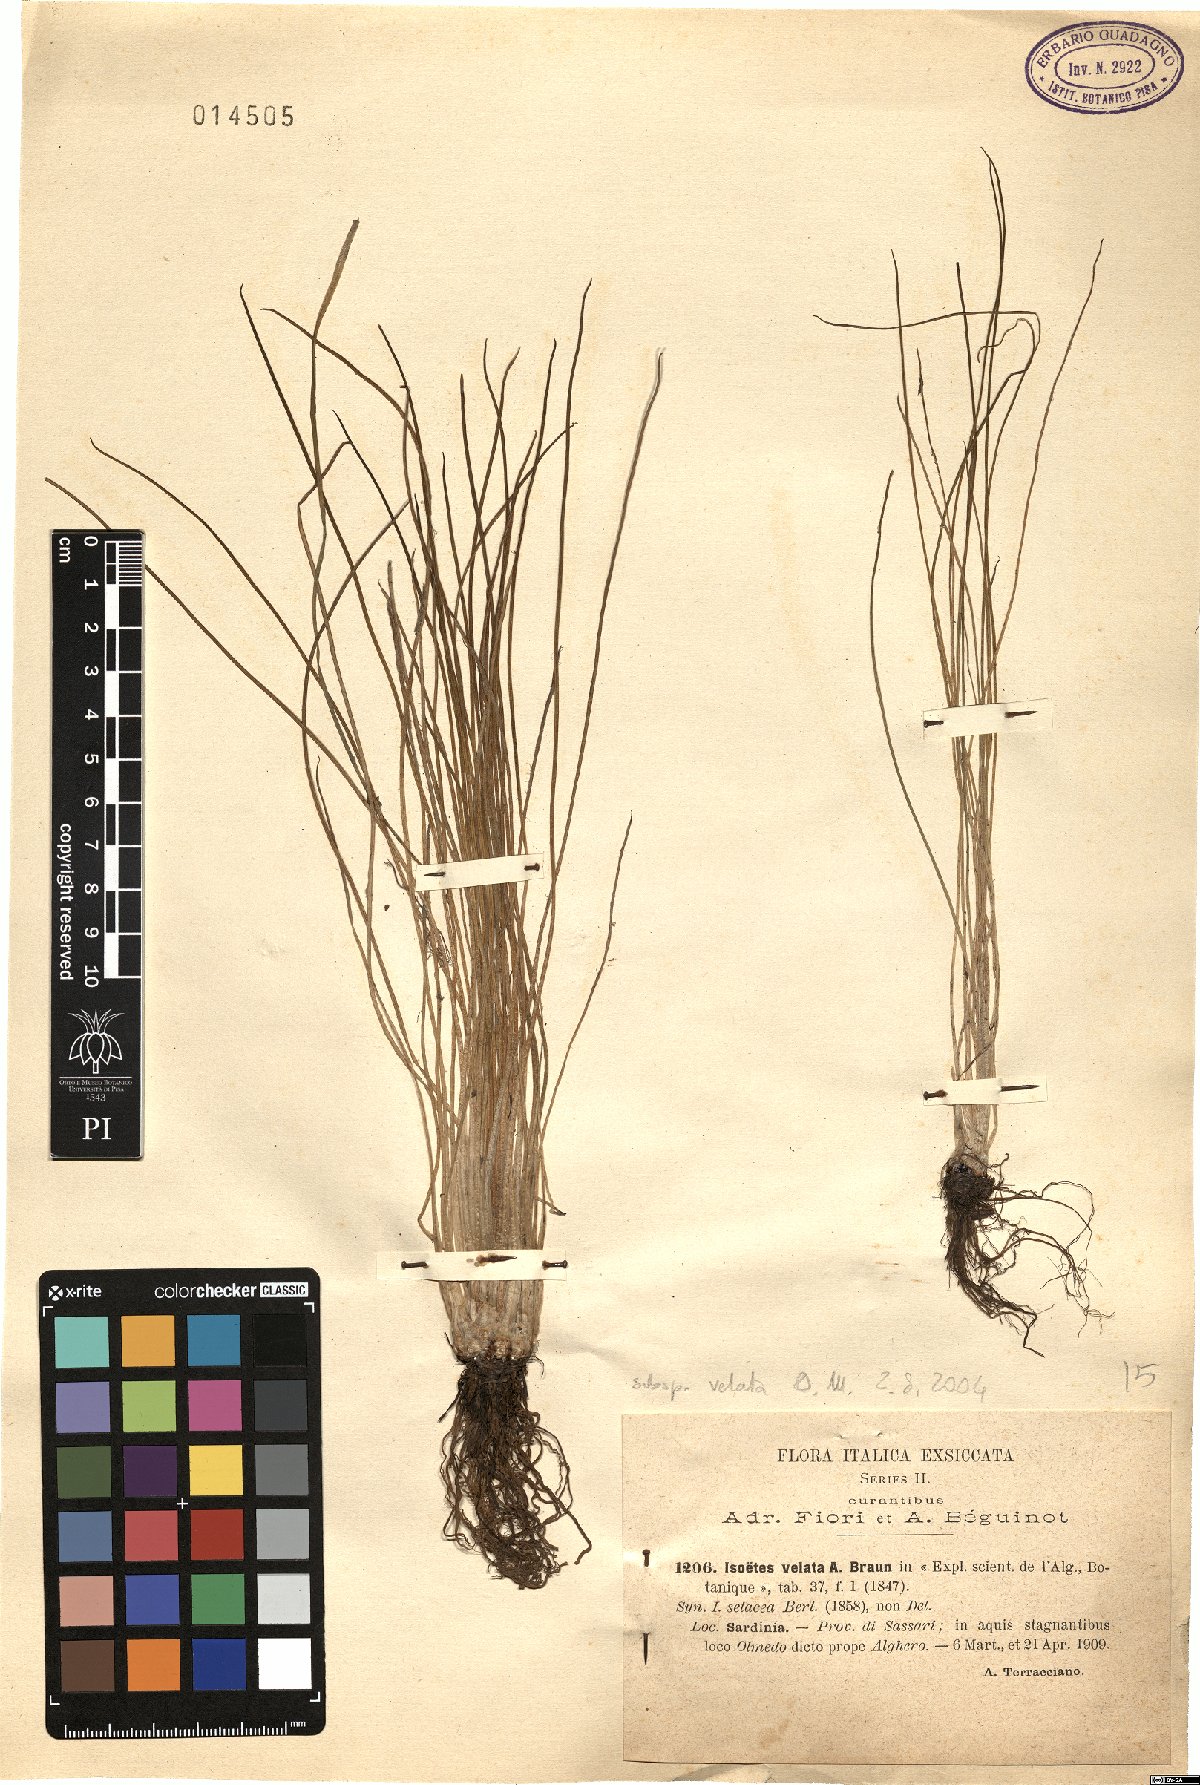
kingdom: Plantae
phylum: Tracheophyta
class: Lycopodiopsida
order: Isoetales
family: Isoetaceae
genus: Isoetes
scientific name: Isoetes longissima
